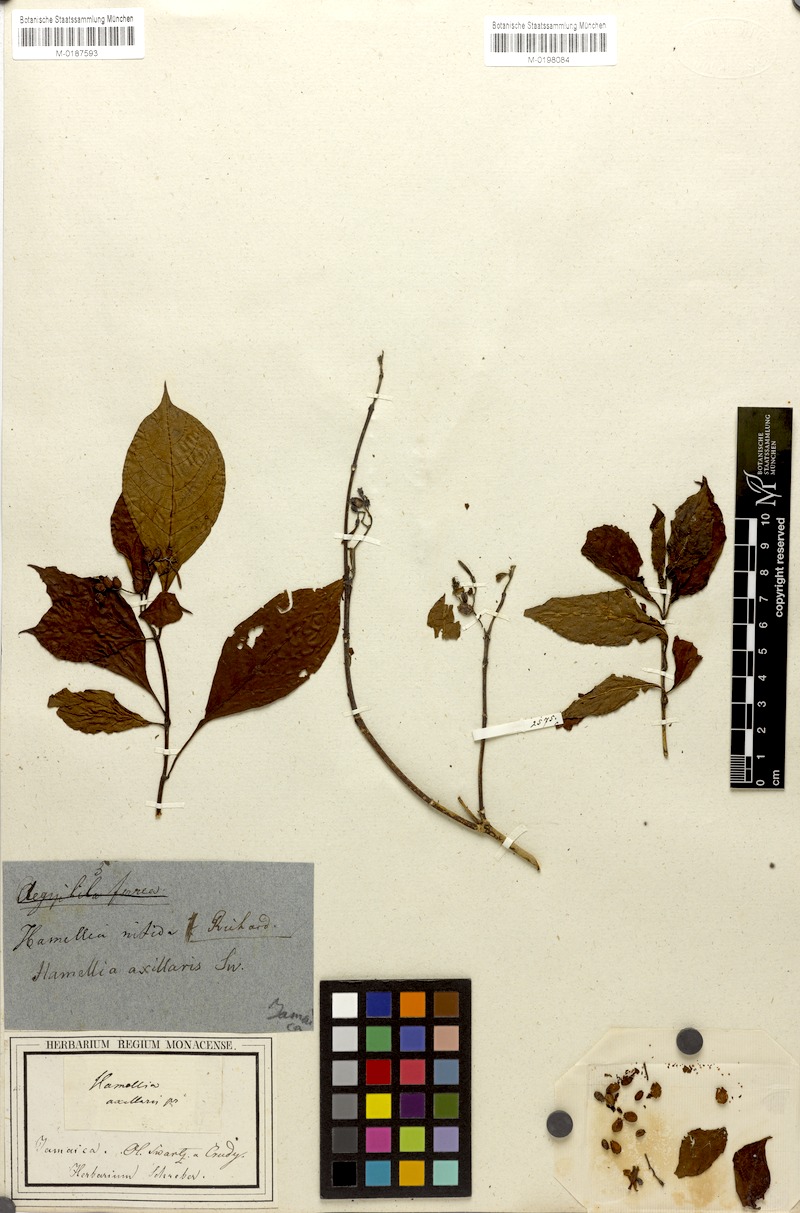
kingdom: Plantae
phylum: Tracheophyta
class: Magnoliopsida
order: Gentianales
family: Rubiaceae
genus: Hamelia
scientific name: Hamelia axillaris
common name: Balsamillo
